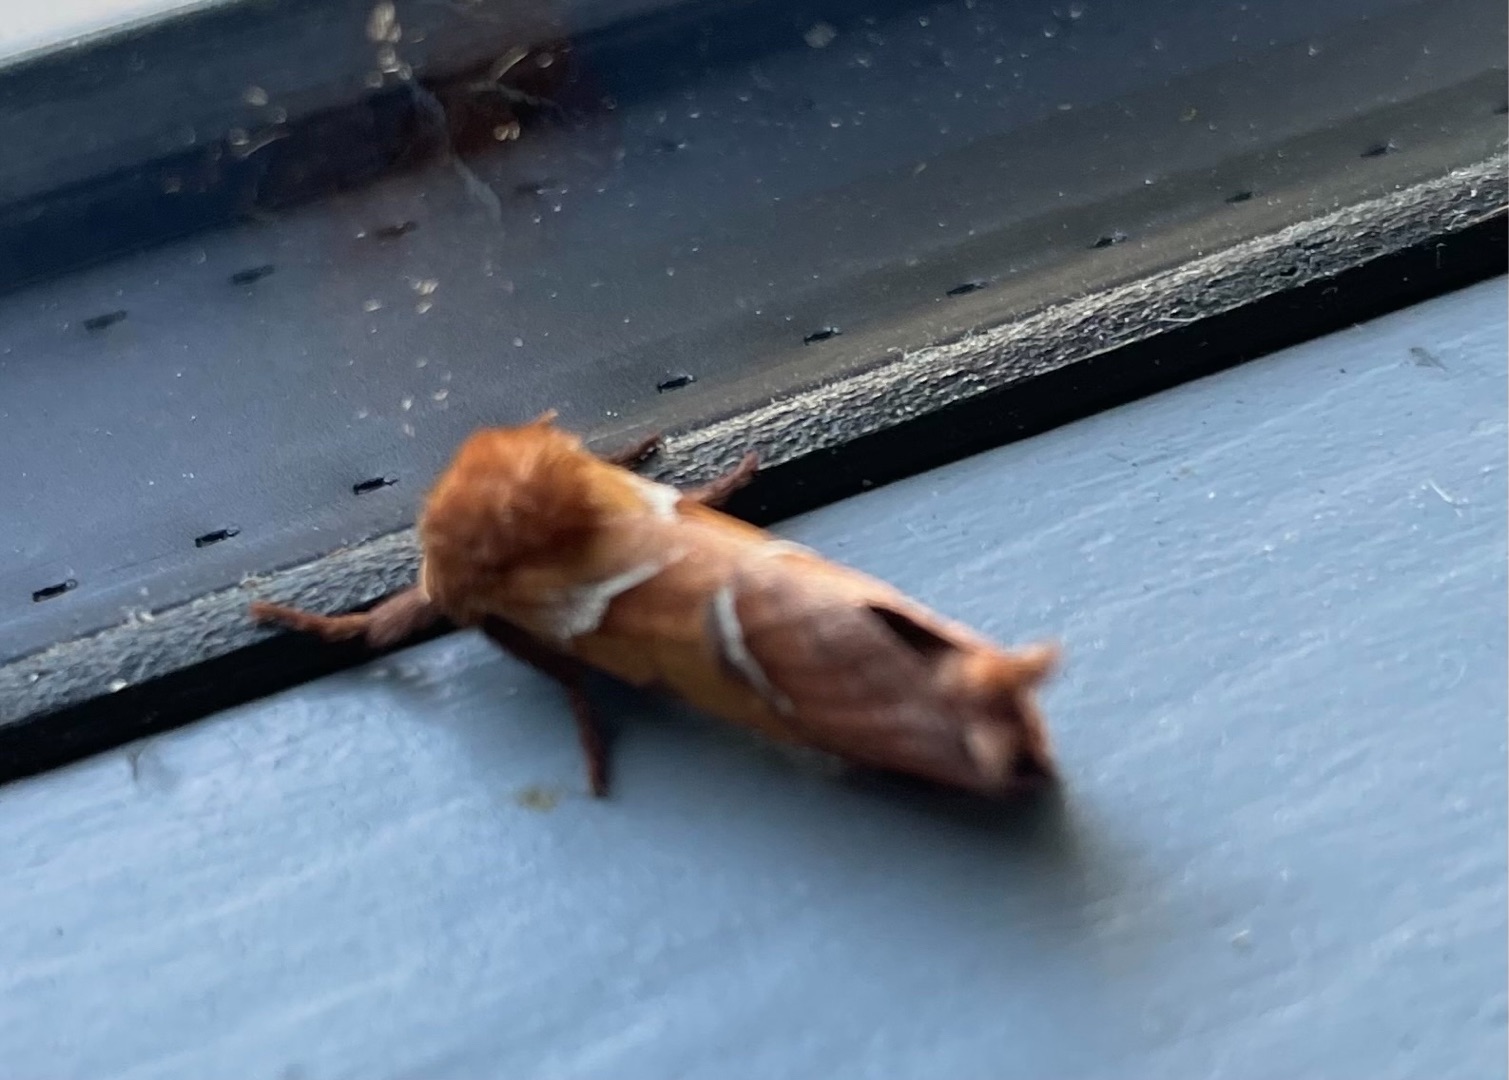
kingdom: Animalia
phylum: Arthropoda
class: Insecta
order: Lepidoptera
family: Hepialidae
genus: Triodia
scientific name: Triodia sylvina
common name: Skræpperodæder
